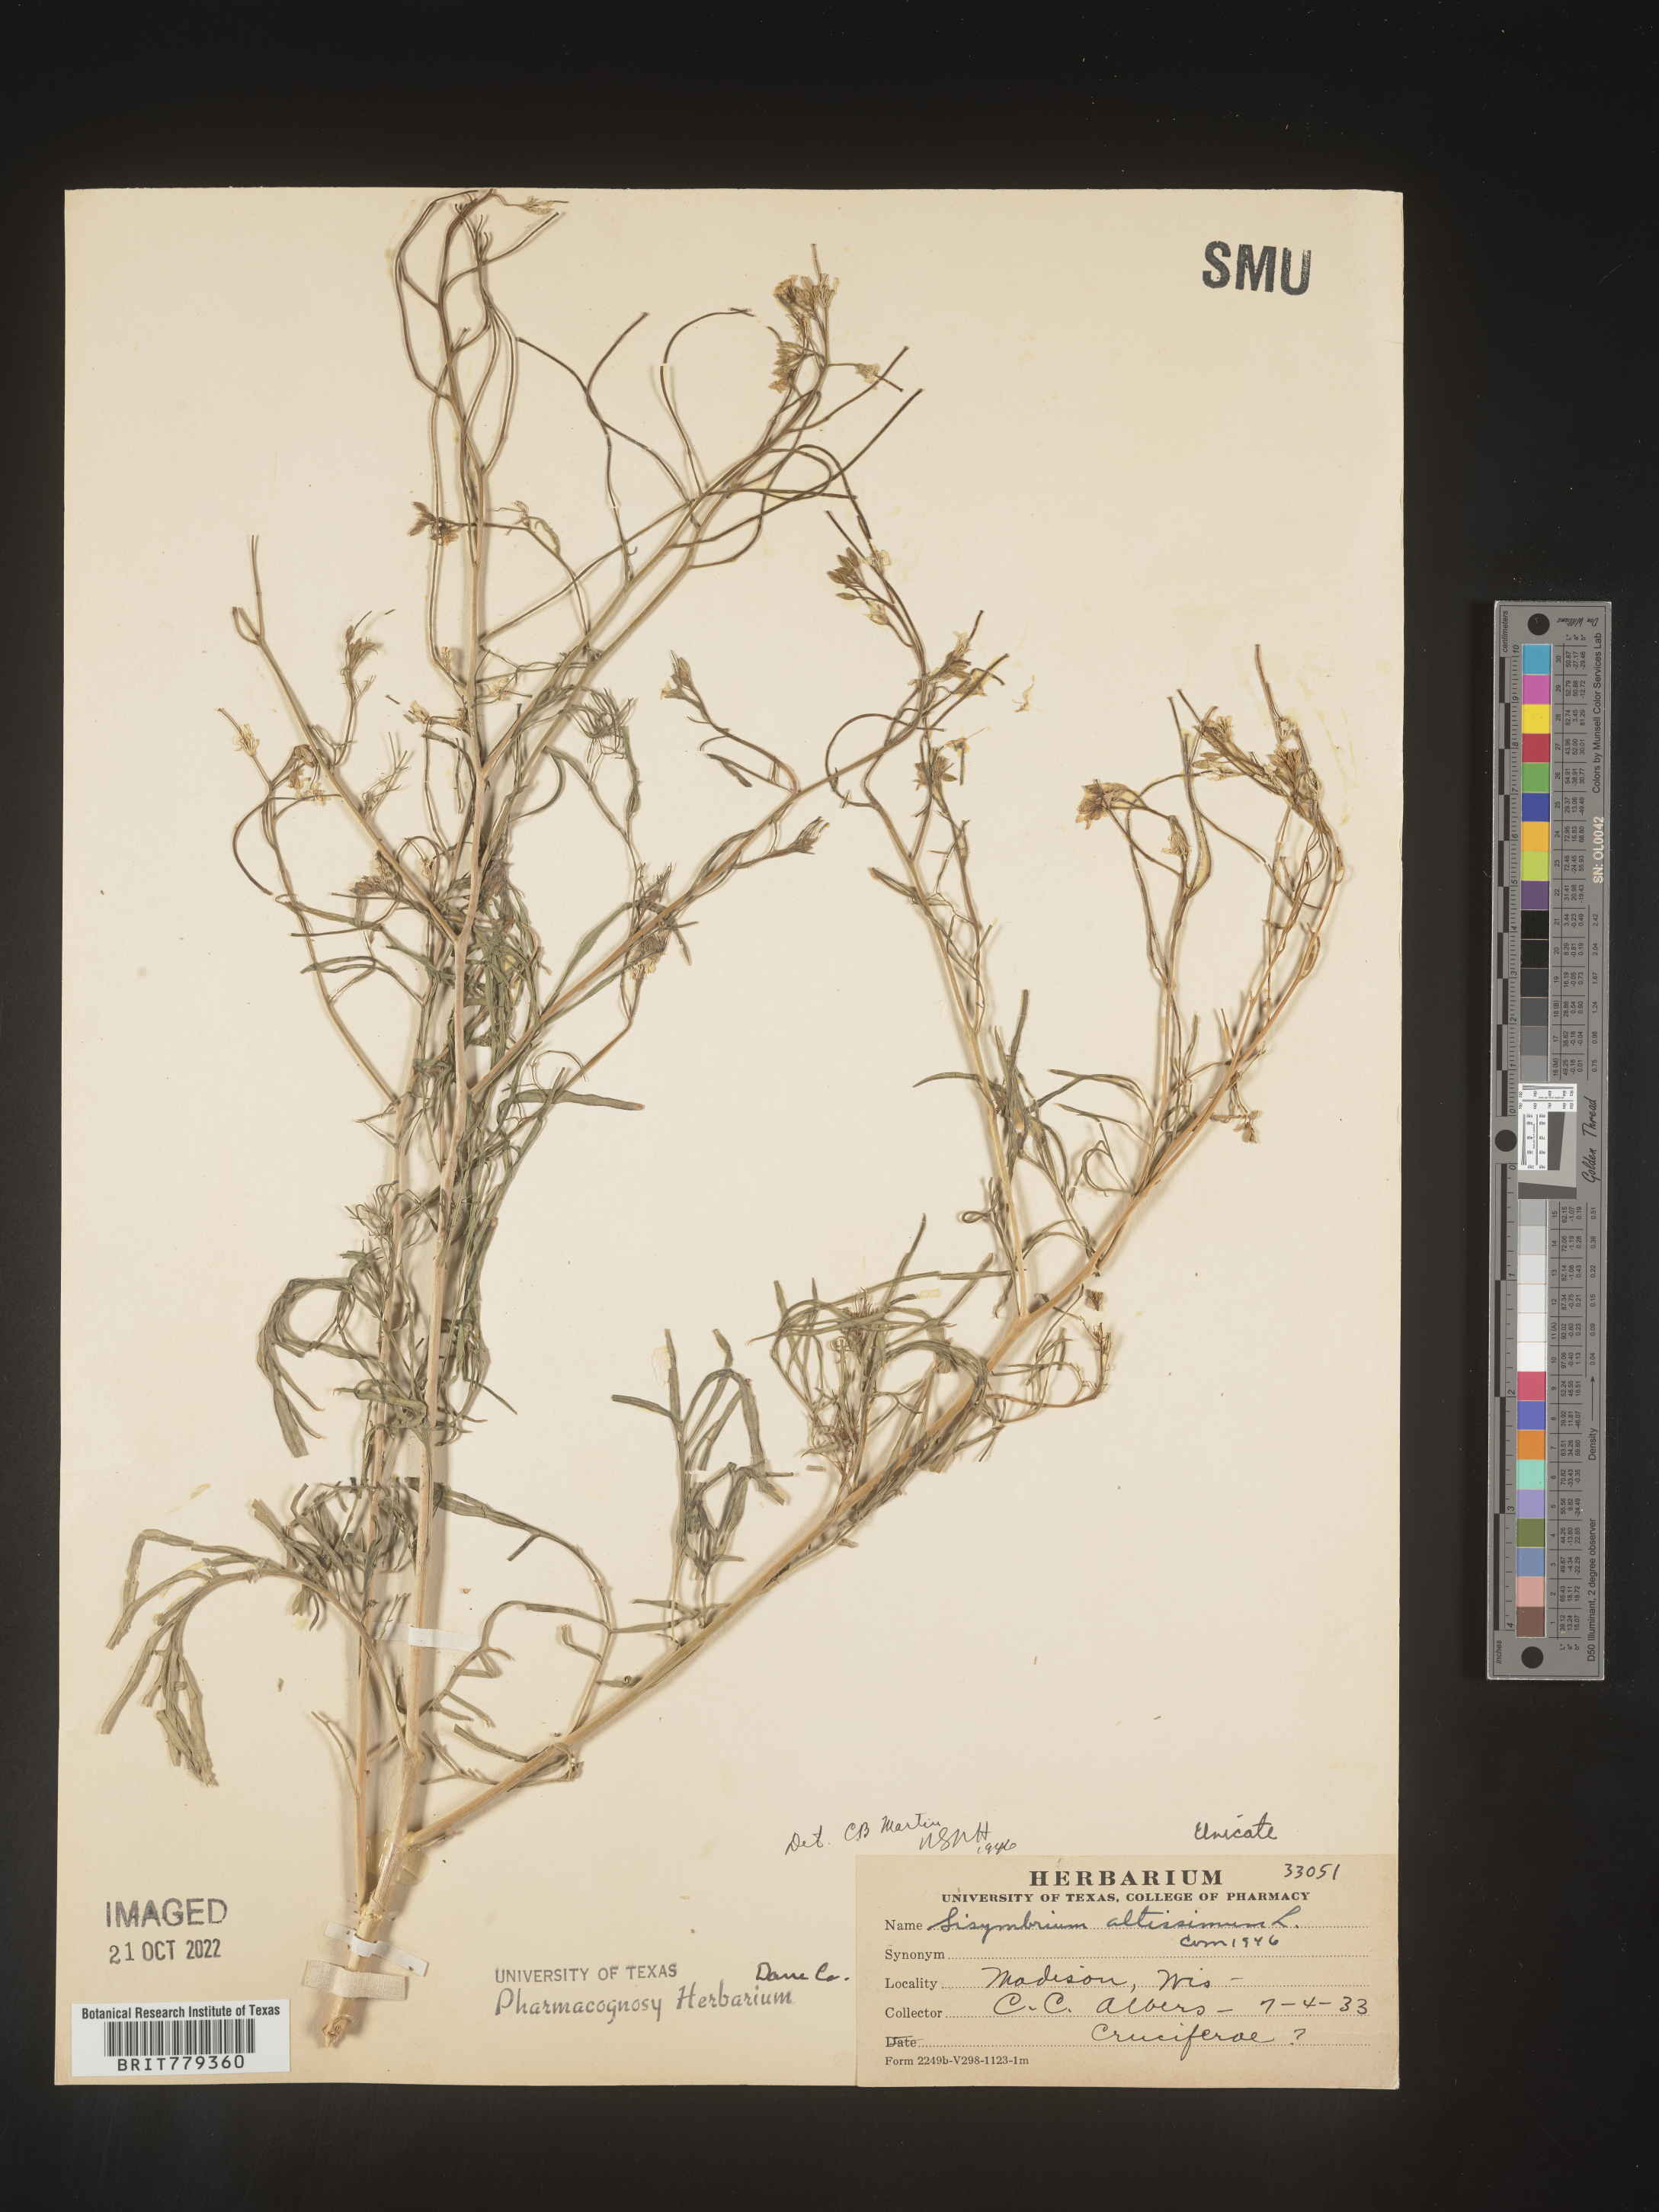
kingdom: Plantae
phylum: Tracheophyta
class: Magnoliopsida
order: Brassicales
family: Brassicaceae
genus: Sisymbrium
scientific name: Sisymbrium altissimum
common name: Tall rocket
